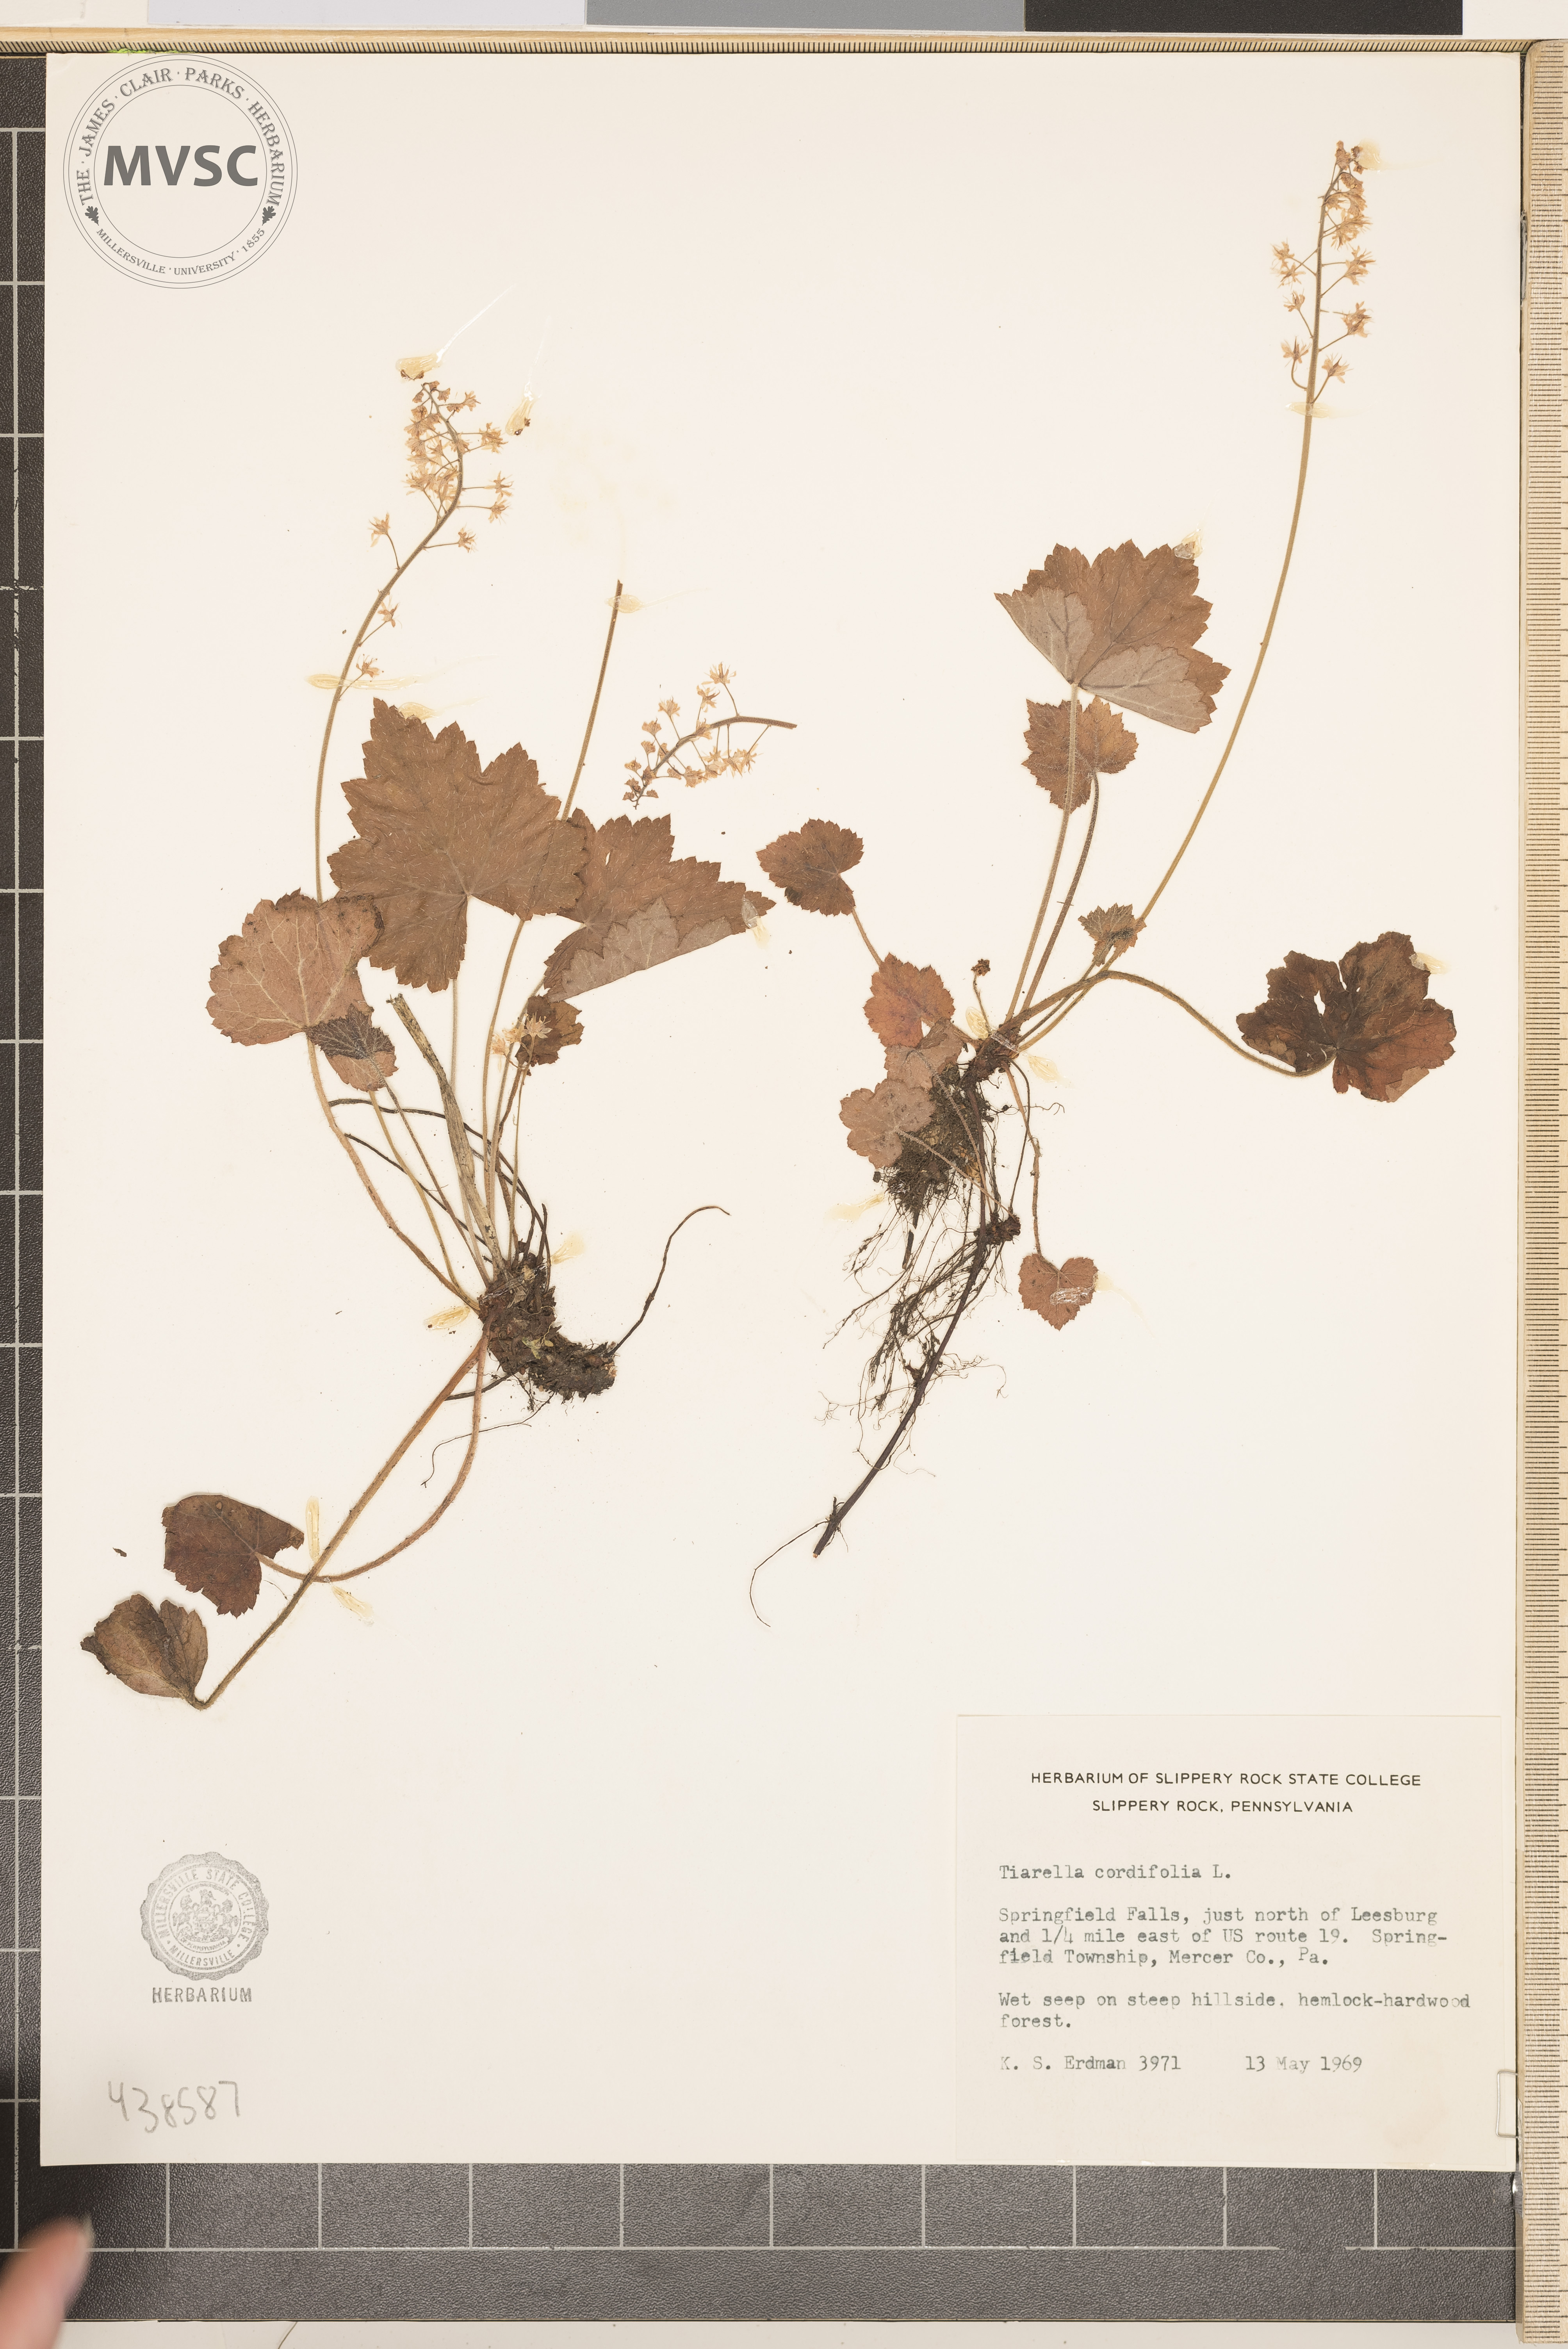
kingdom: Plantae
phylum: Tracheophyta
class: Magnoliopsida
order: Saxifragales
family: Saxifragaceae
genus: Tiarella
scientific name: Tiarella cordifolia
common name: Foamflower
